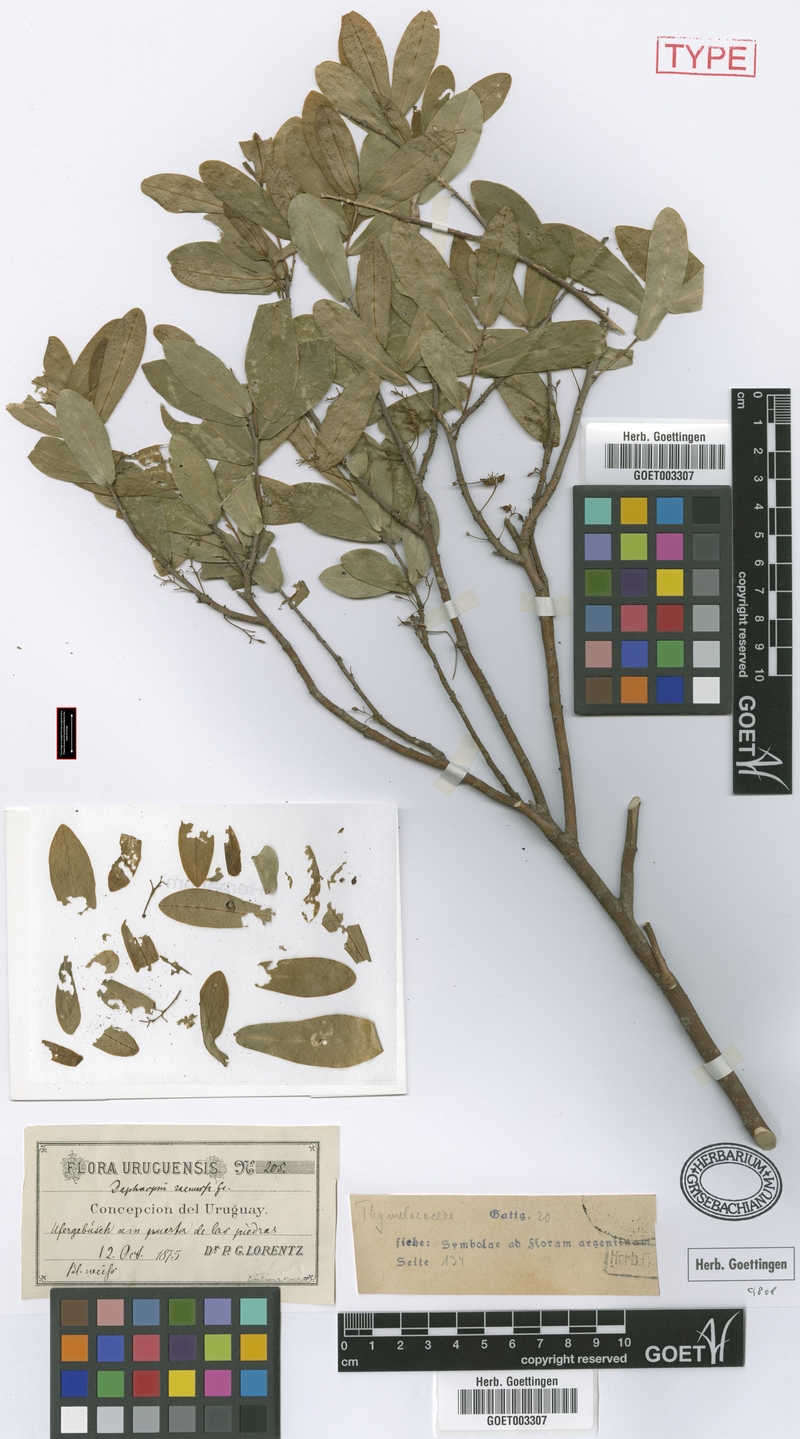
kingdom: Plantae
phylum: Tracheophyta
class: Magnoliopsida
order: Malvales
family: Thymelaeaceae
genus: Daphnopsis
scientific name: Daphnopsis racemosa
